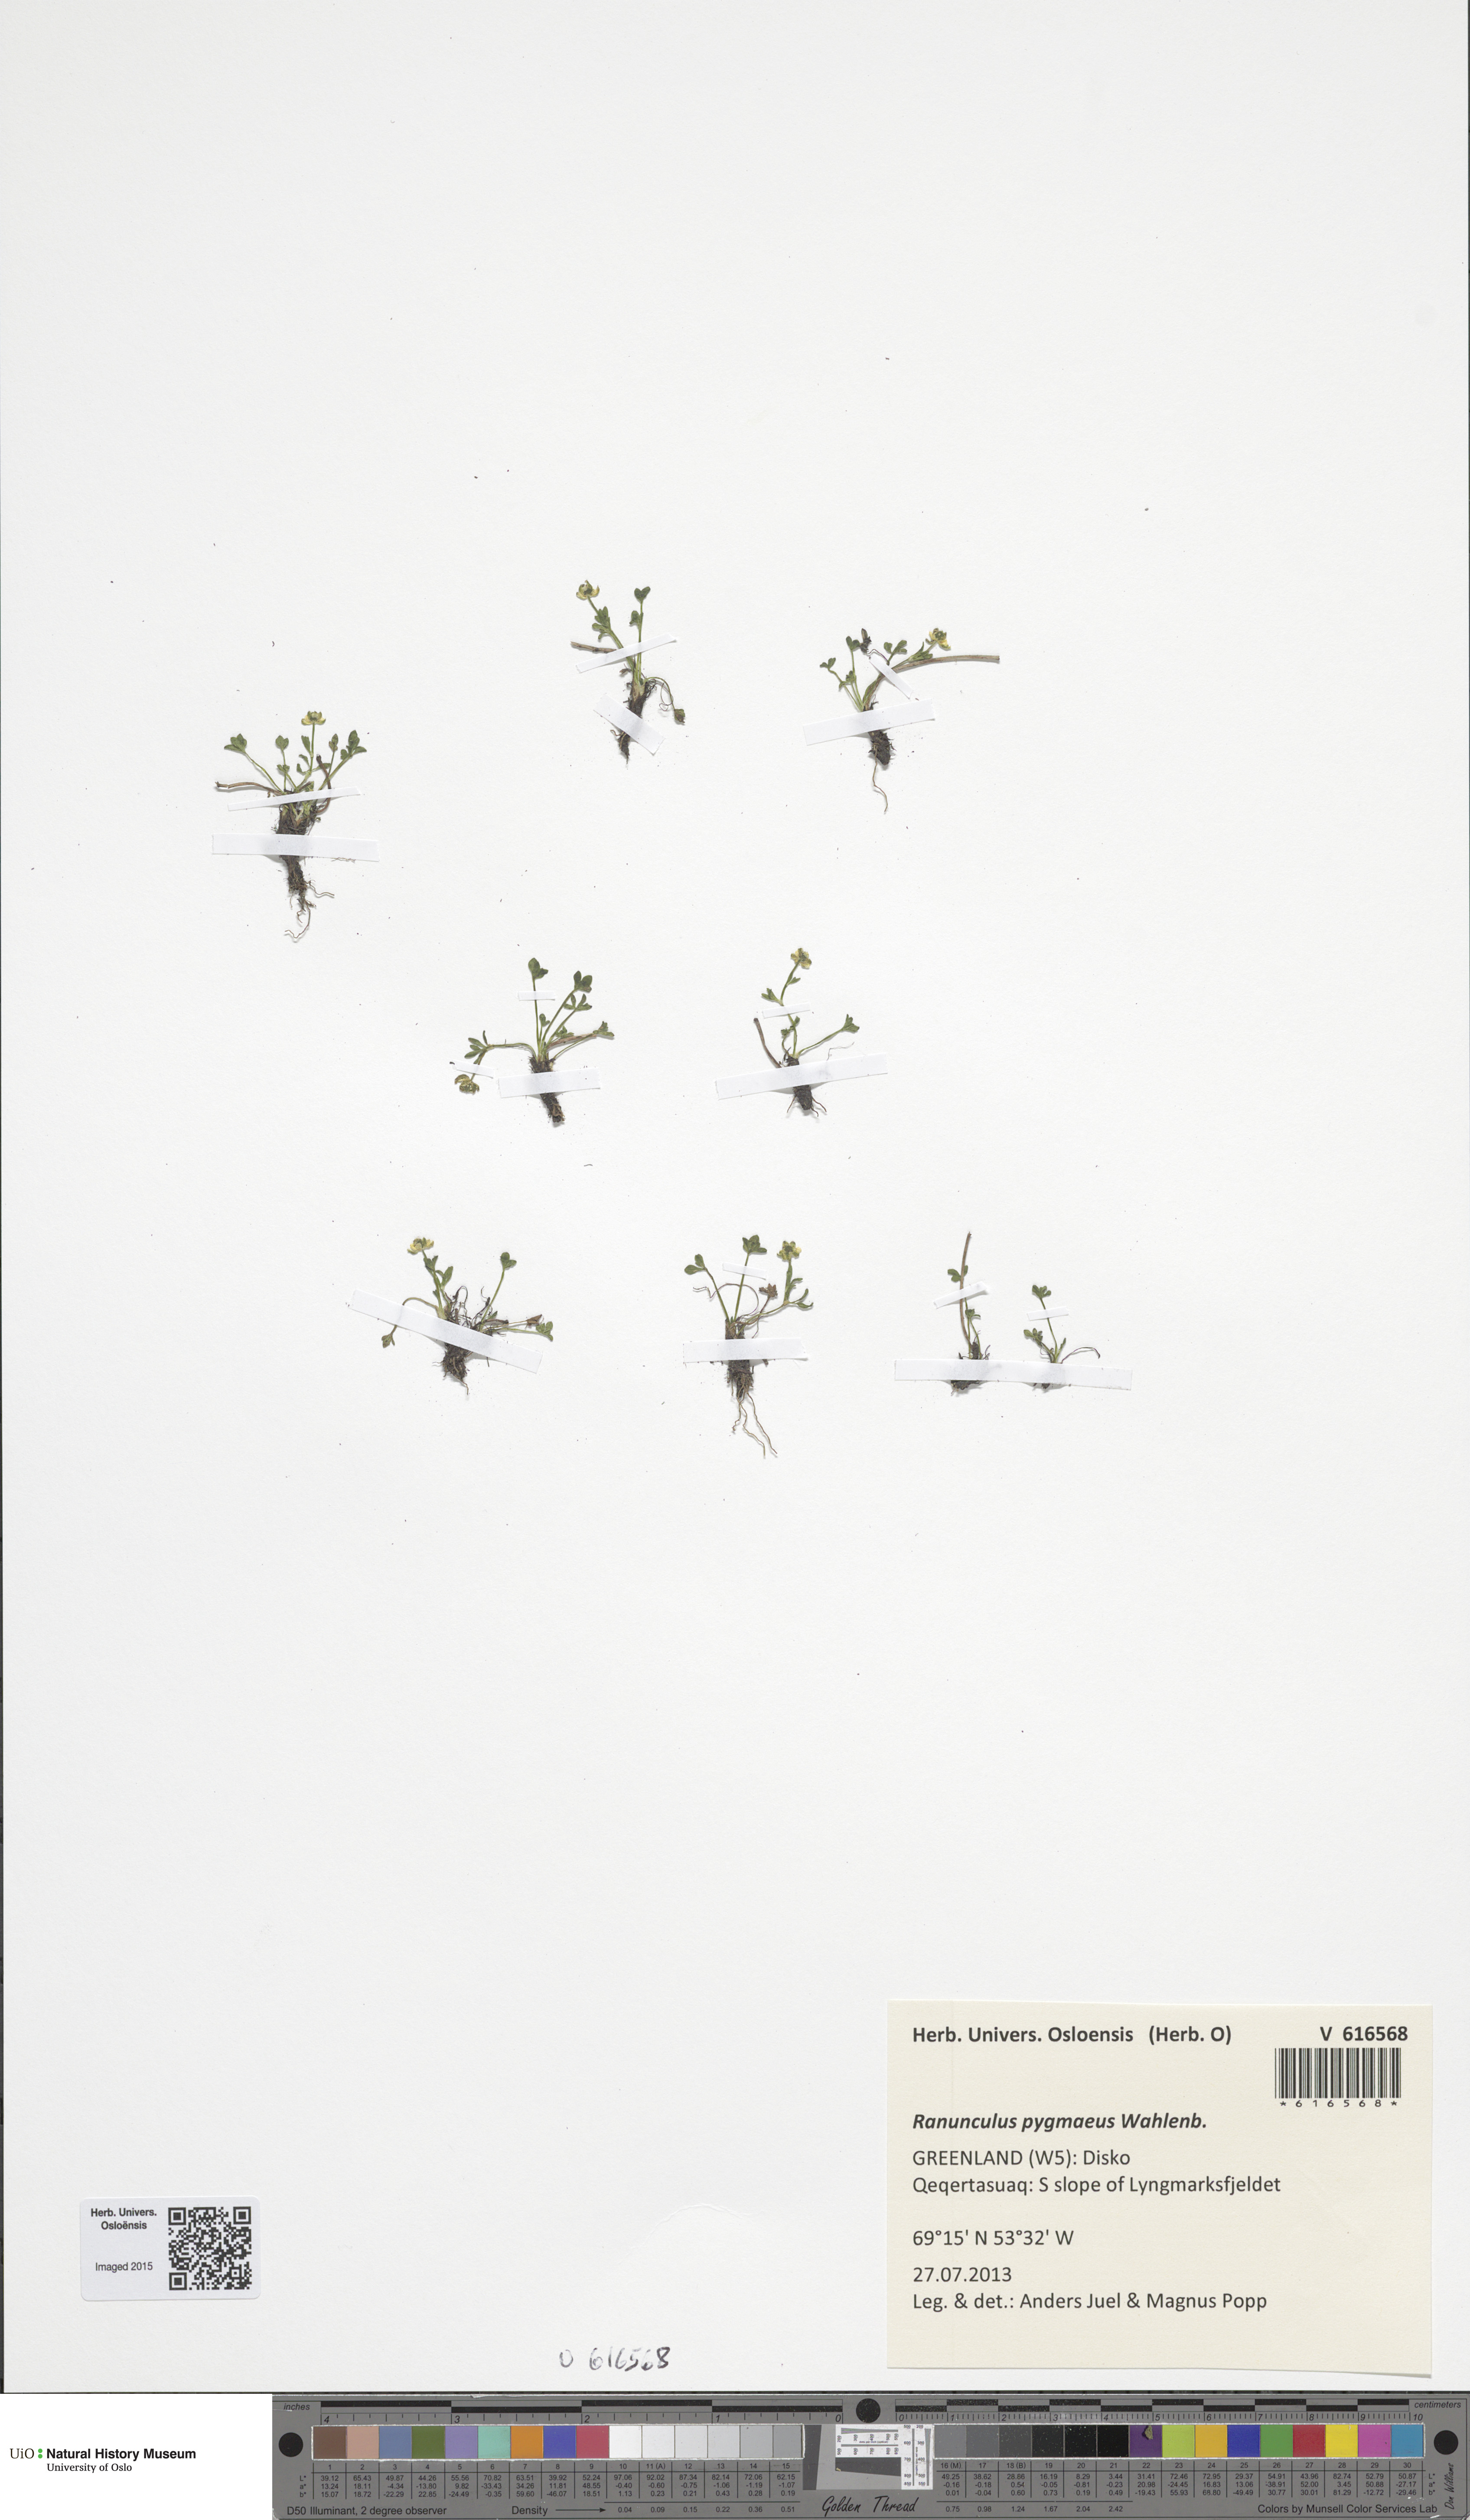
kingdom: Plantae
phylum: Tracheophyta
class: Magnoliopsida
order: Ranunculales
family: Ranunculaceae
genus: Ranunculus
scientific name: Ranunculus pygmaeus
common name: Dwarf buttercup
